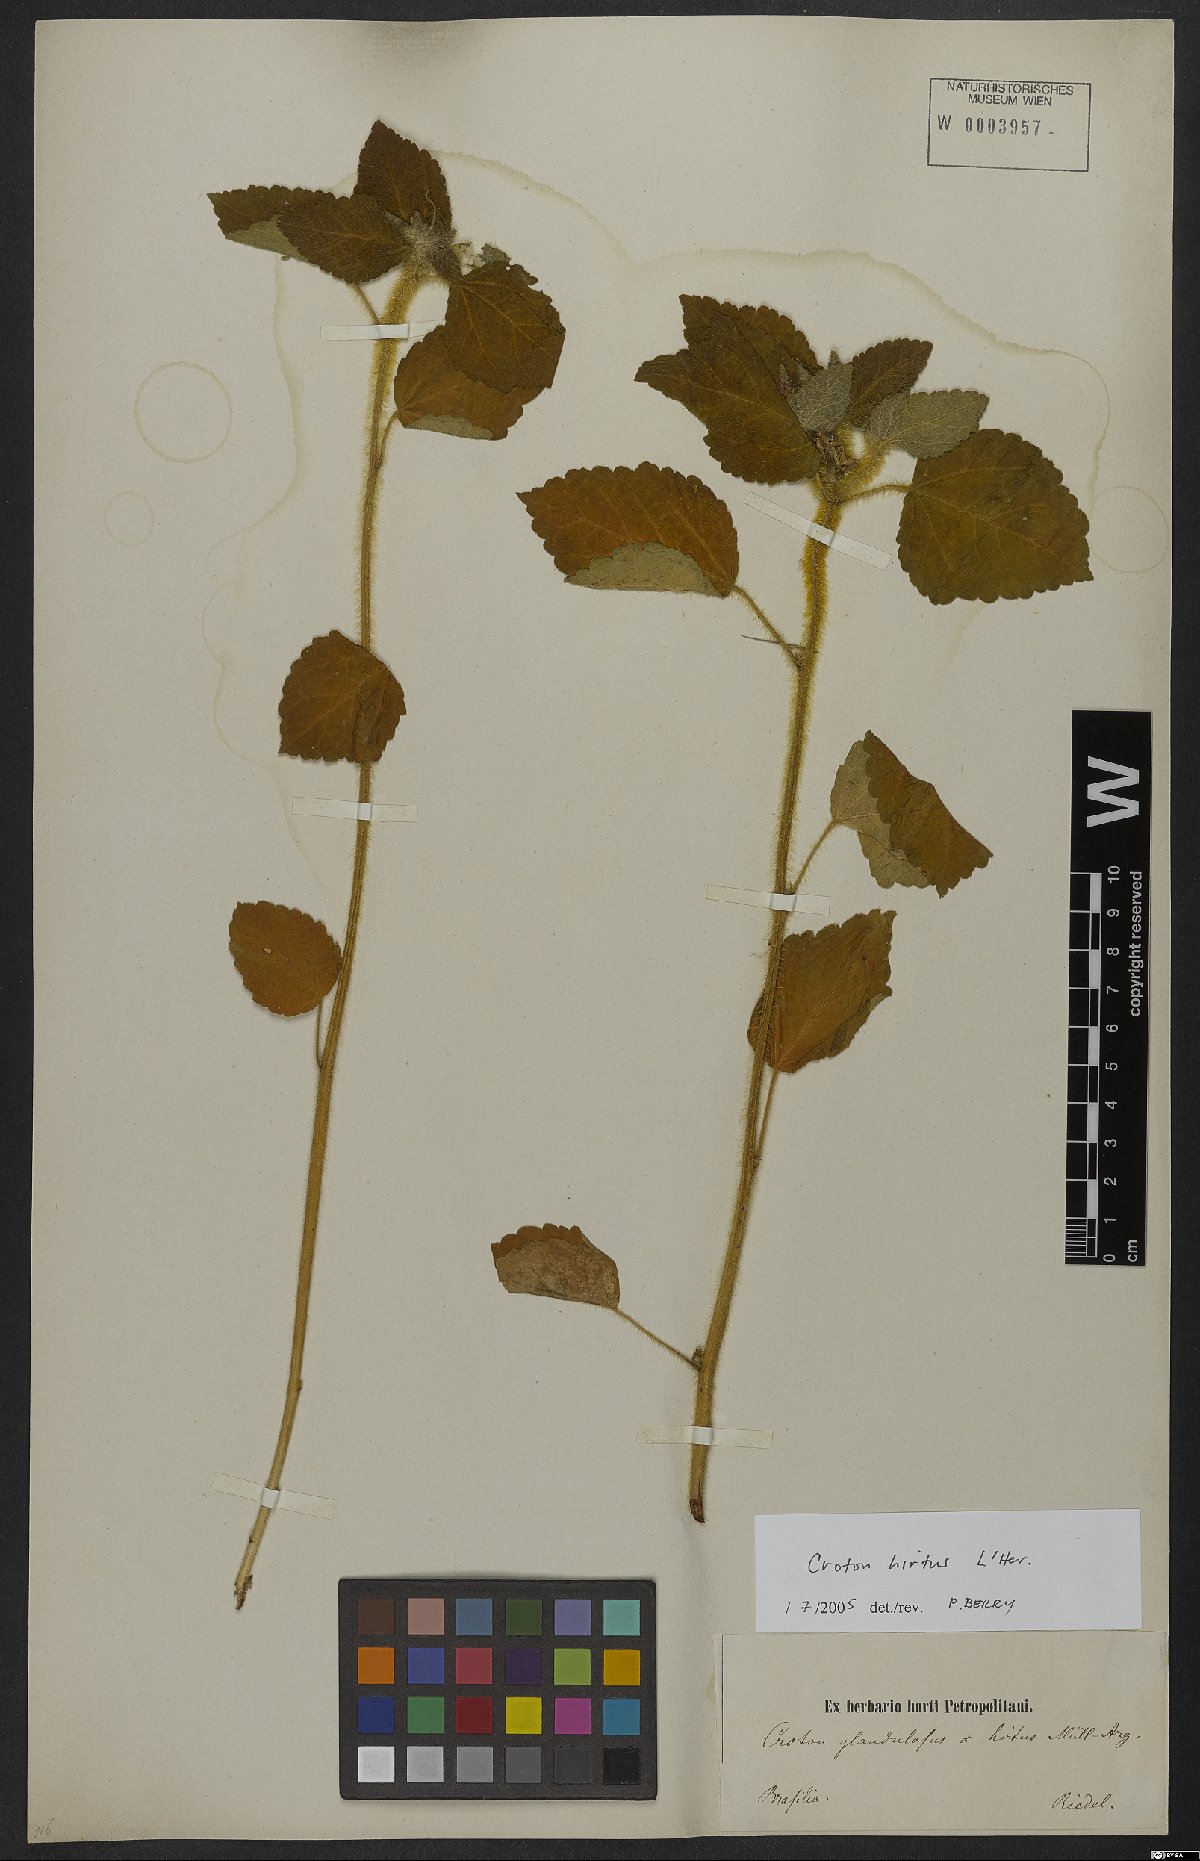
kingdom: Plantae
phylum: Tracheophyta
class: Magnoliopsida
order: Malpighiales
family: Euphorbiaceae
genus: Croton
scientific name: Croton hirtus
